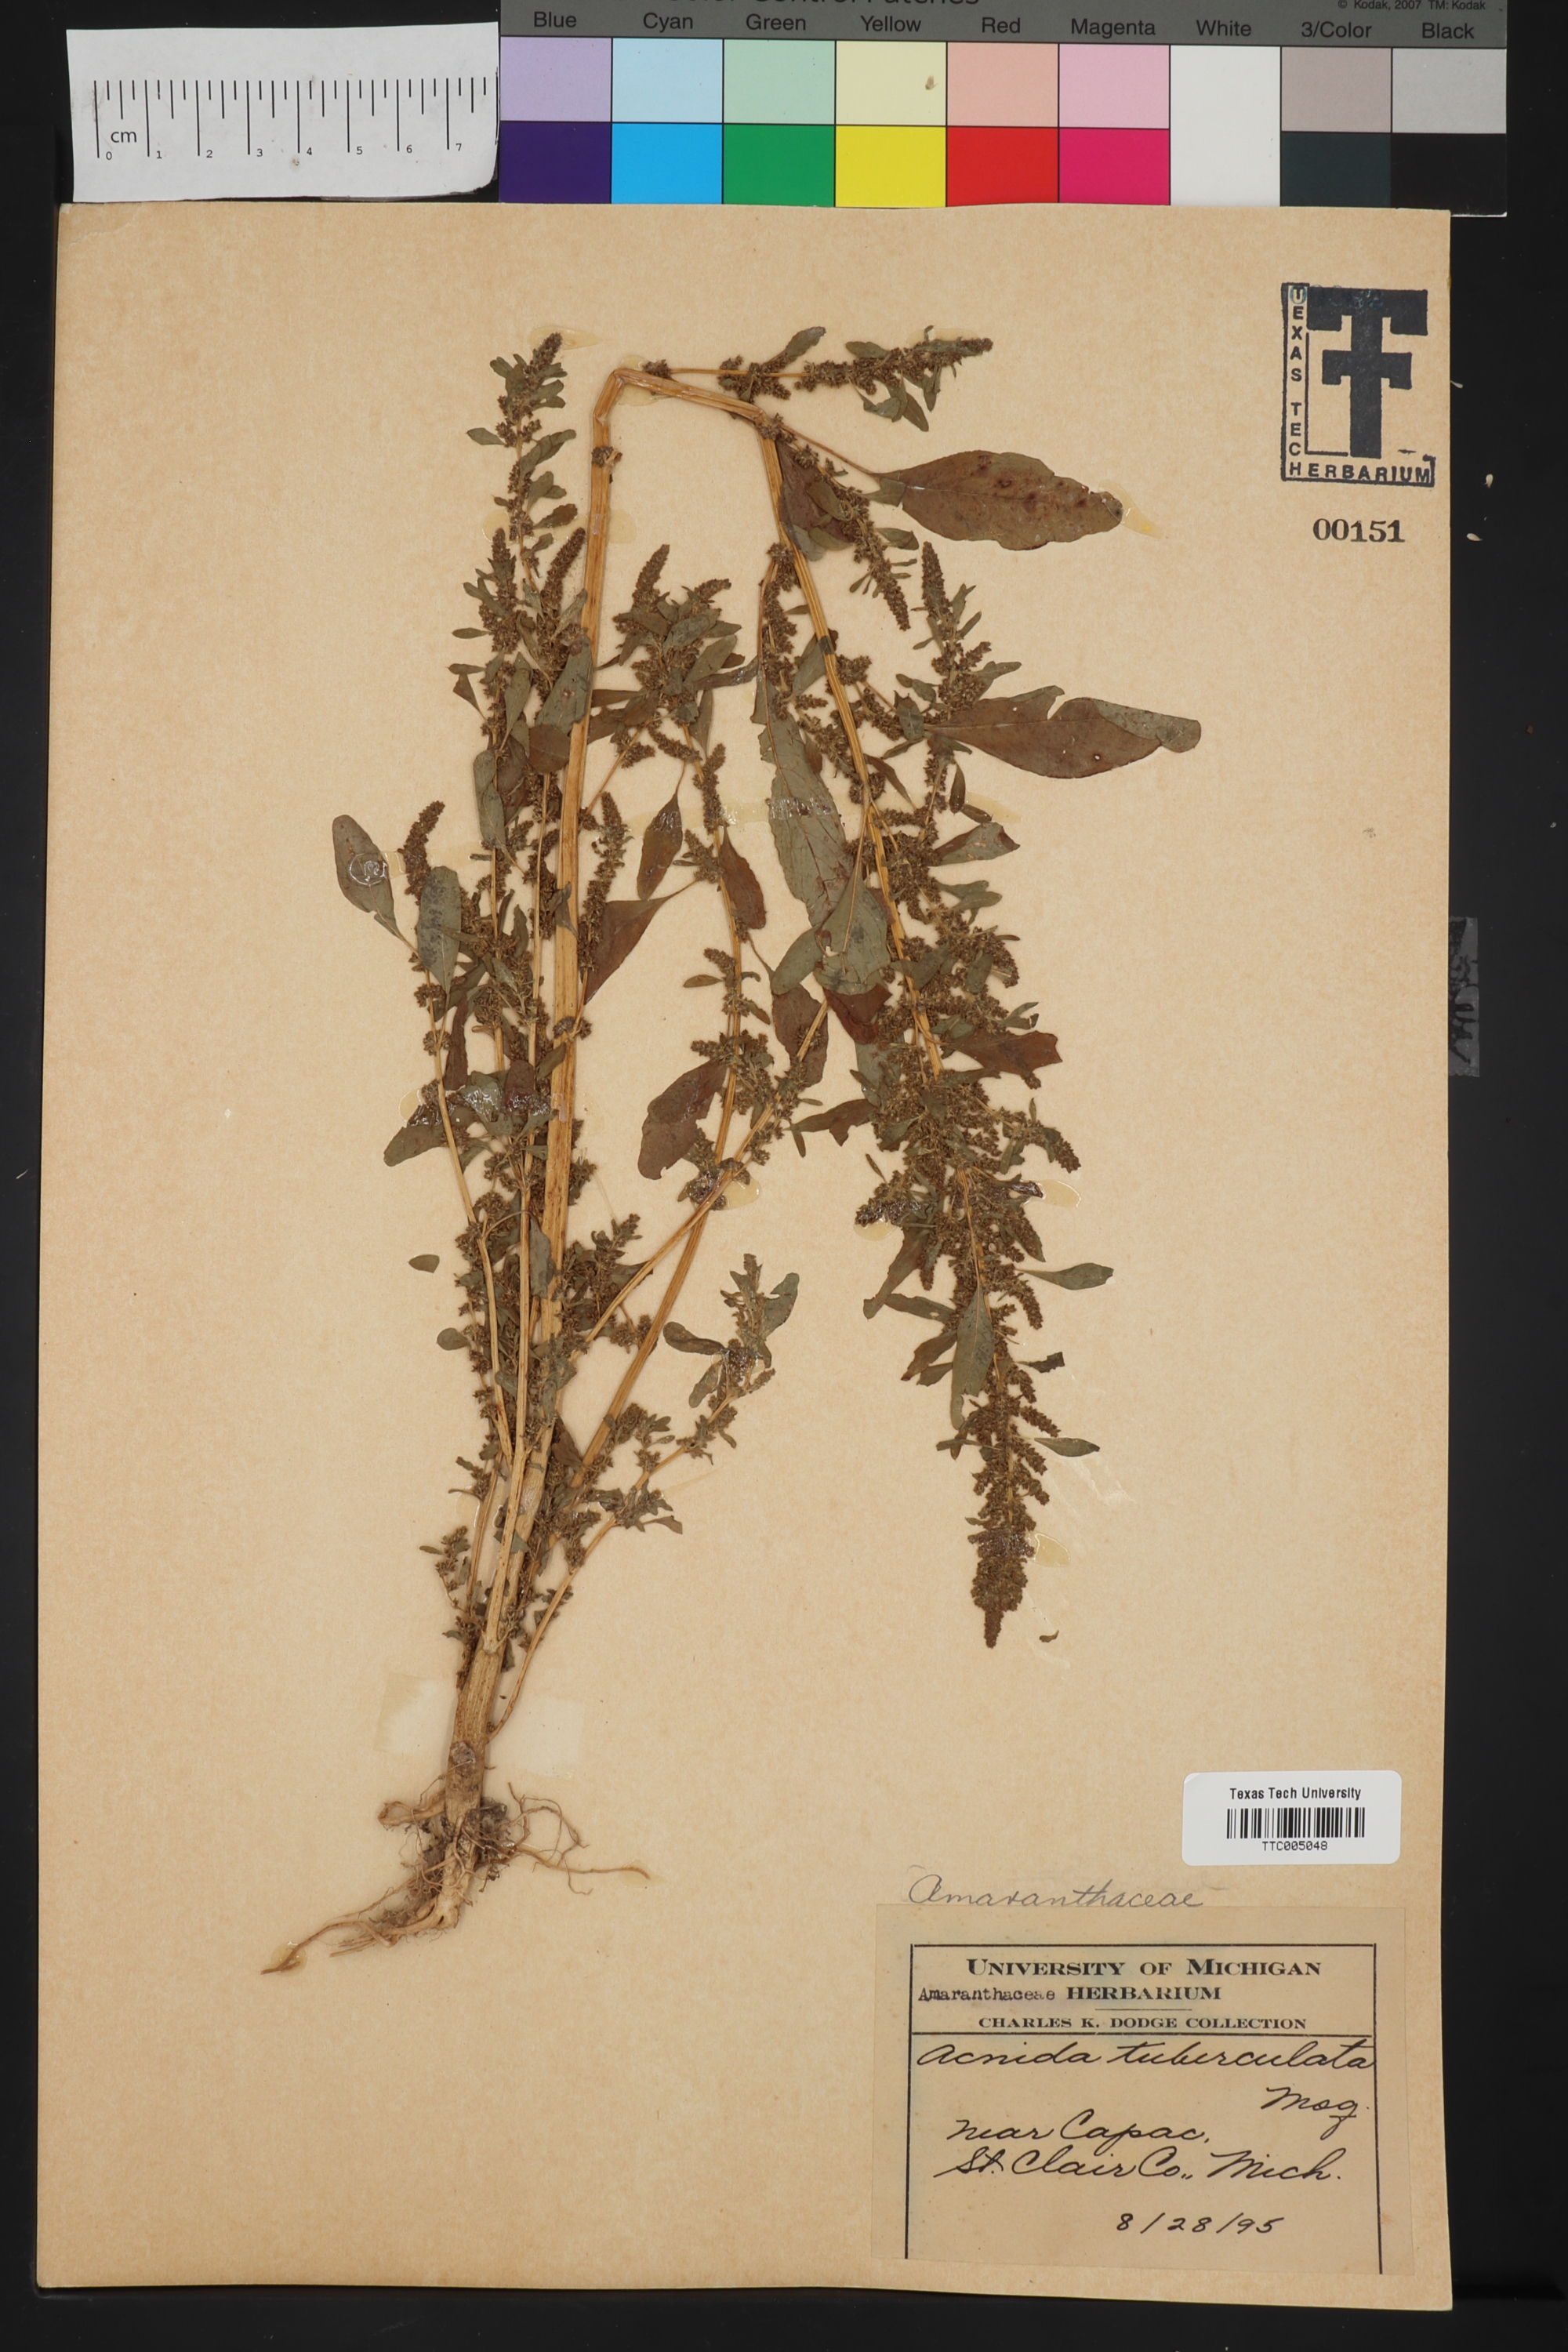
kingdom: Plantae
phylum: Tracheophyta
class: Magnoliopsida
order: Caryophyllales
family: Amaranthaceae
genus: Amaranthus
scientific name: Amaranthus tuberculatus
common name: Rough-fruit amaranth
